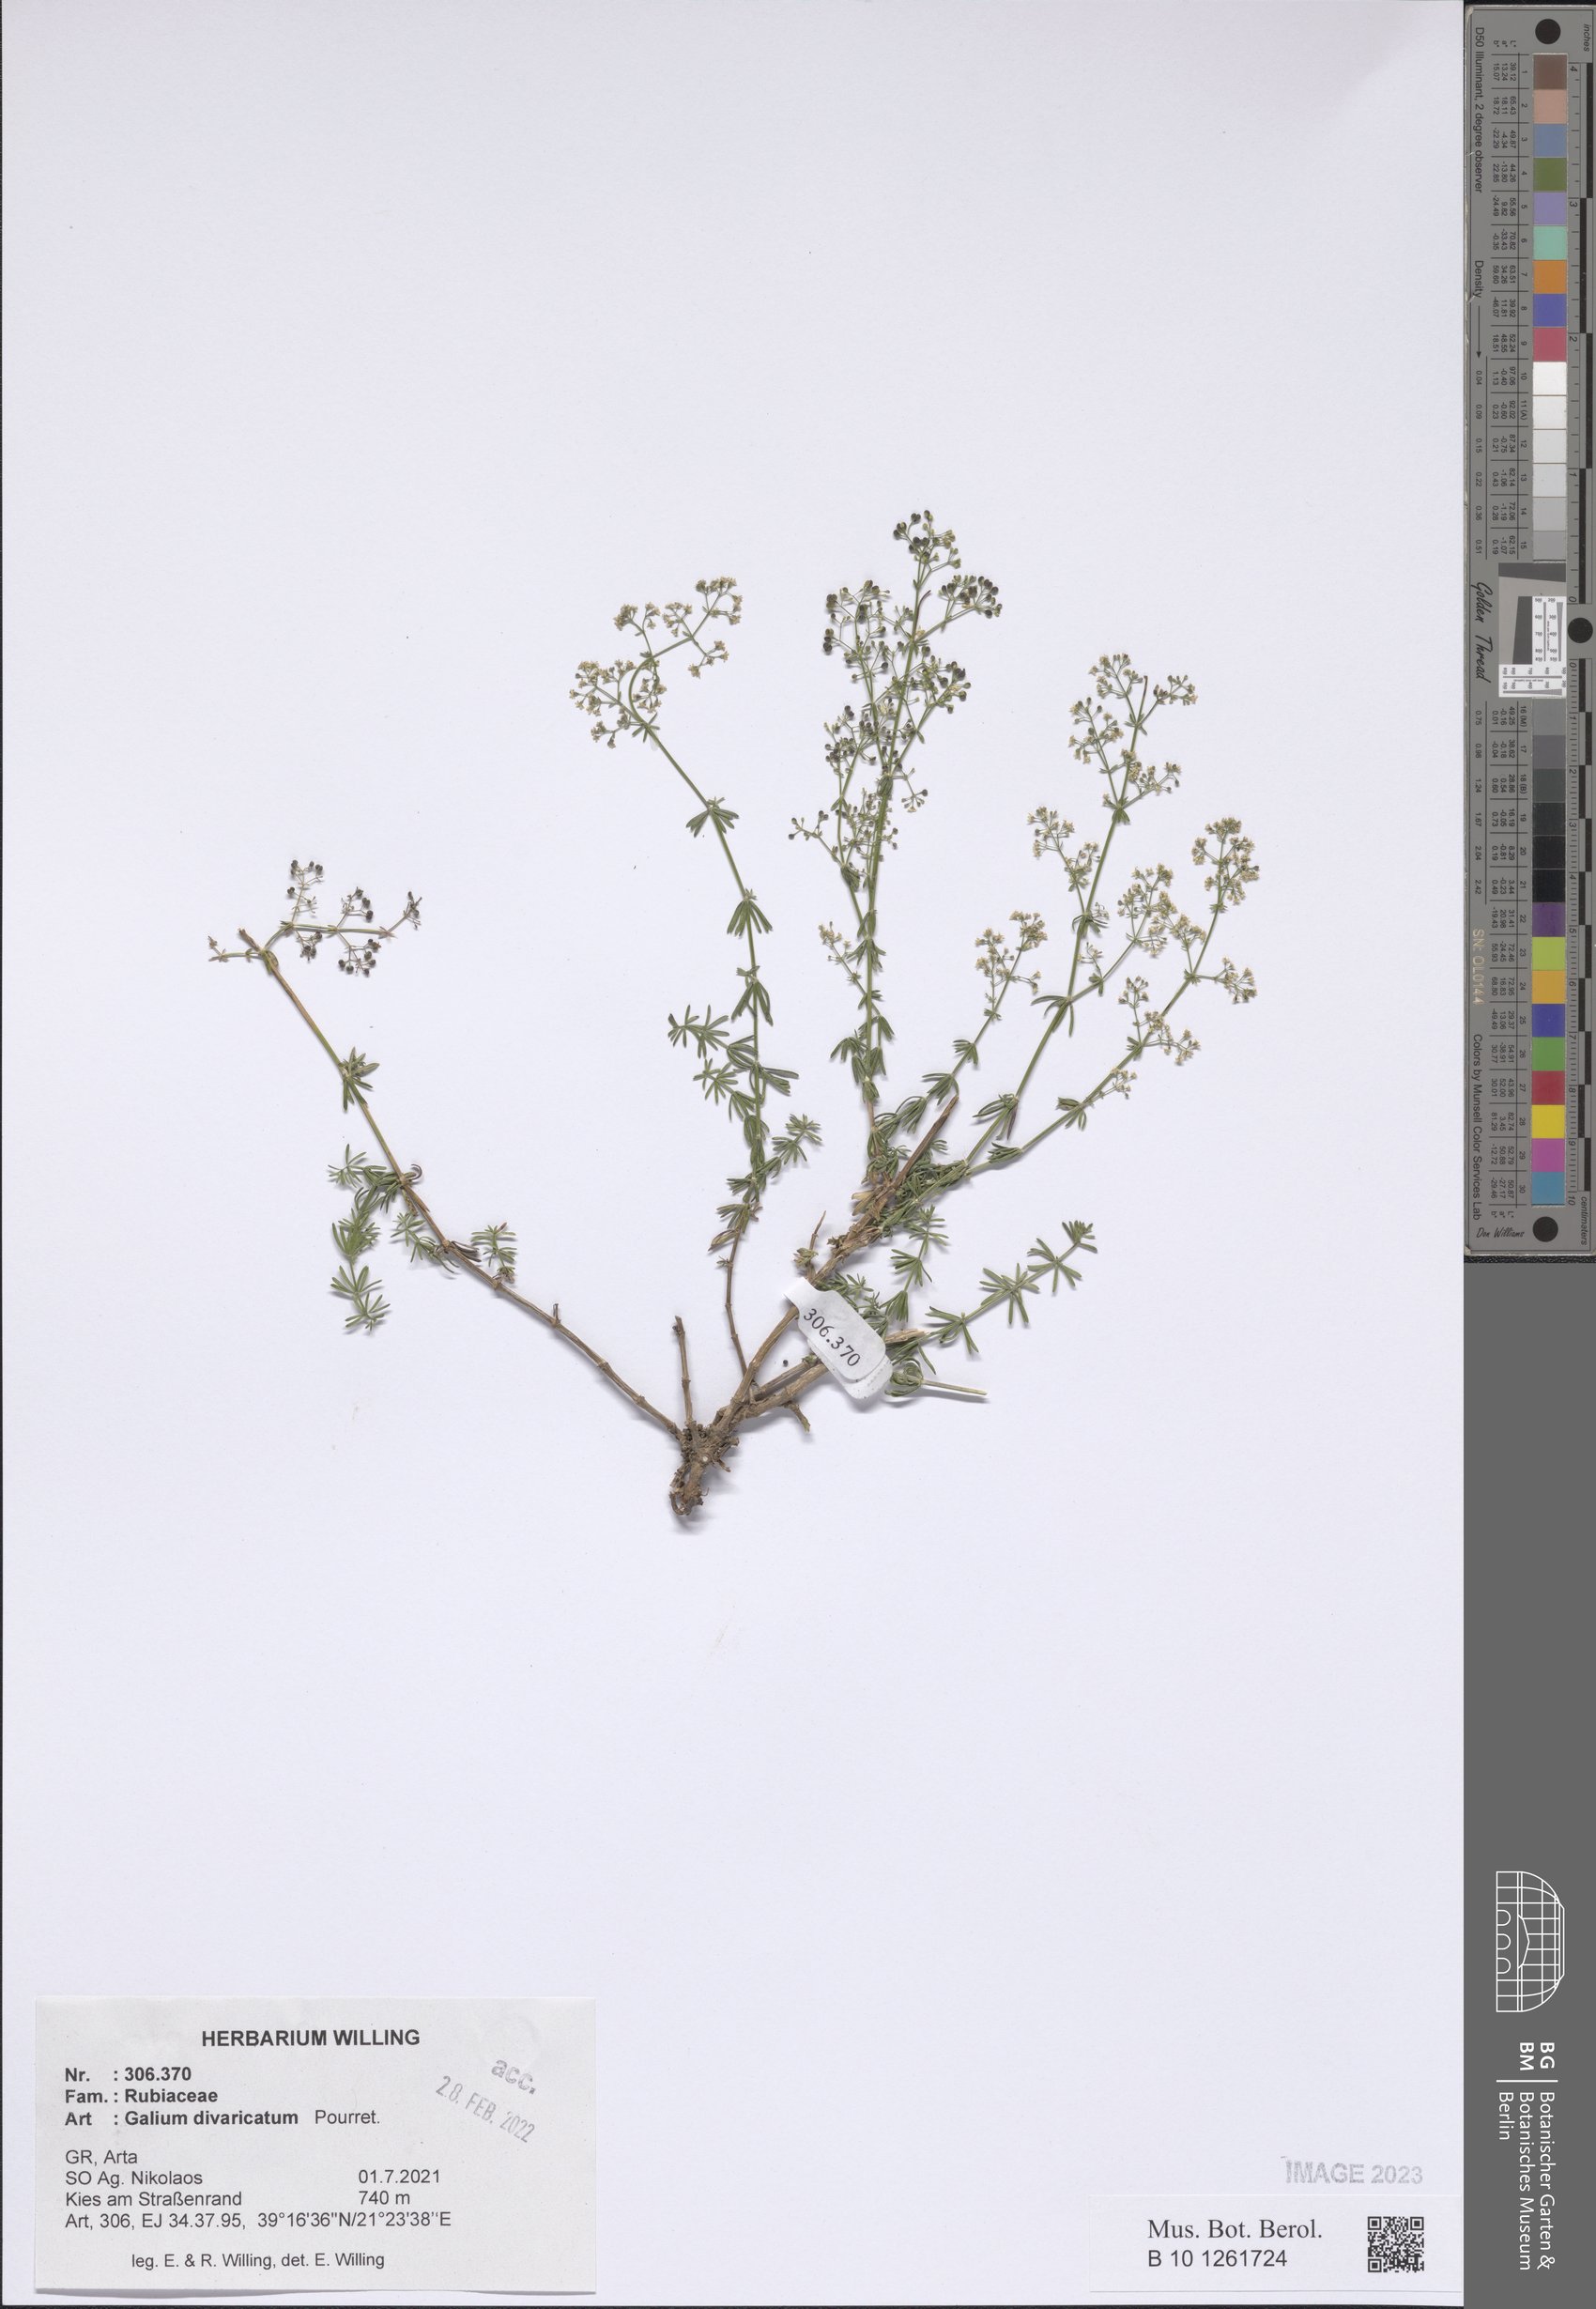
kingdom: Plantae
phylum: Tracheophyta
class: Magnoliopsida
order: Gentianales
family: Rubiaceae
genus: Galium
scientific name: Galium divaricatum
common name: Lamarck's bedstraw
